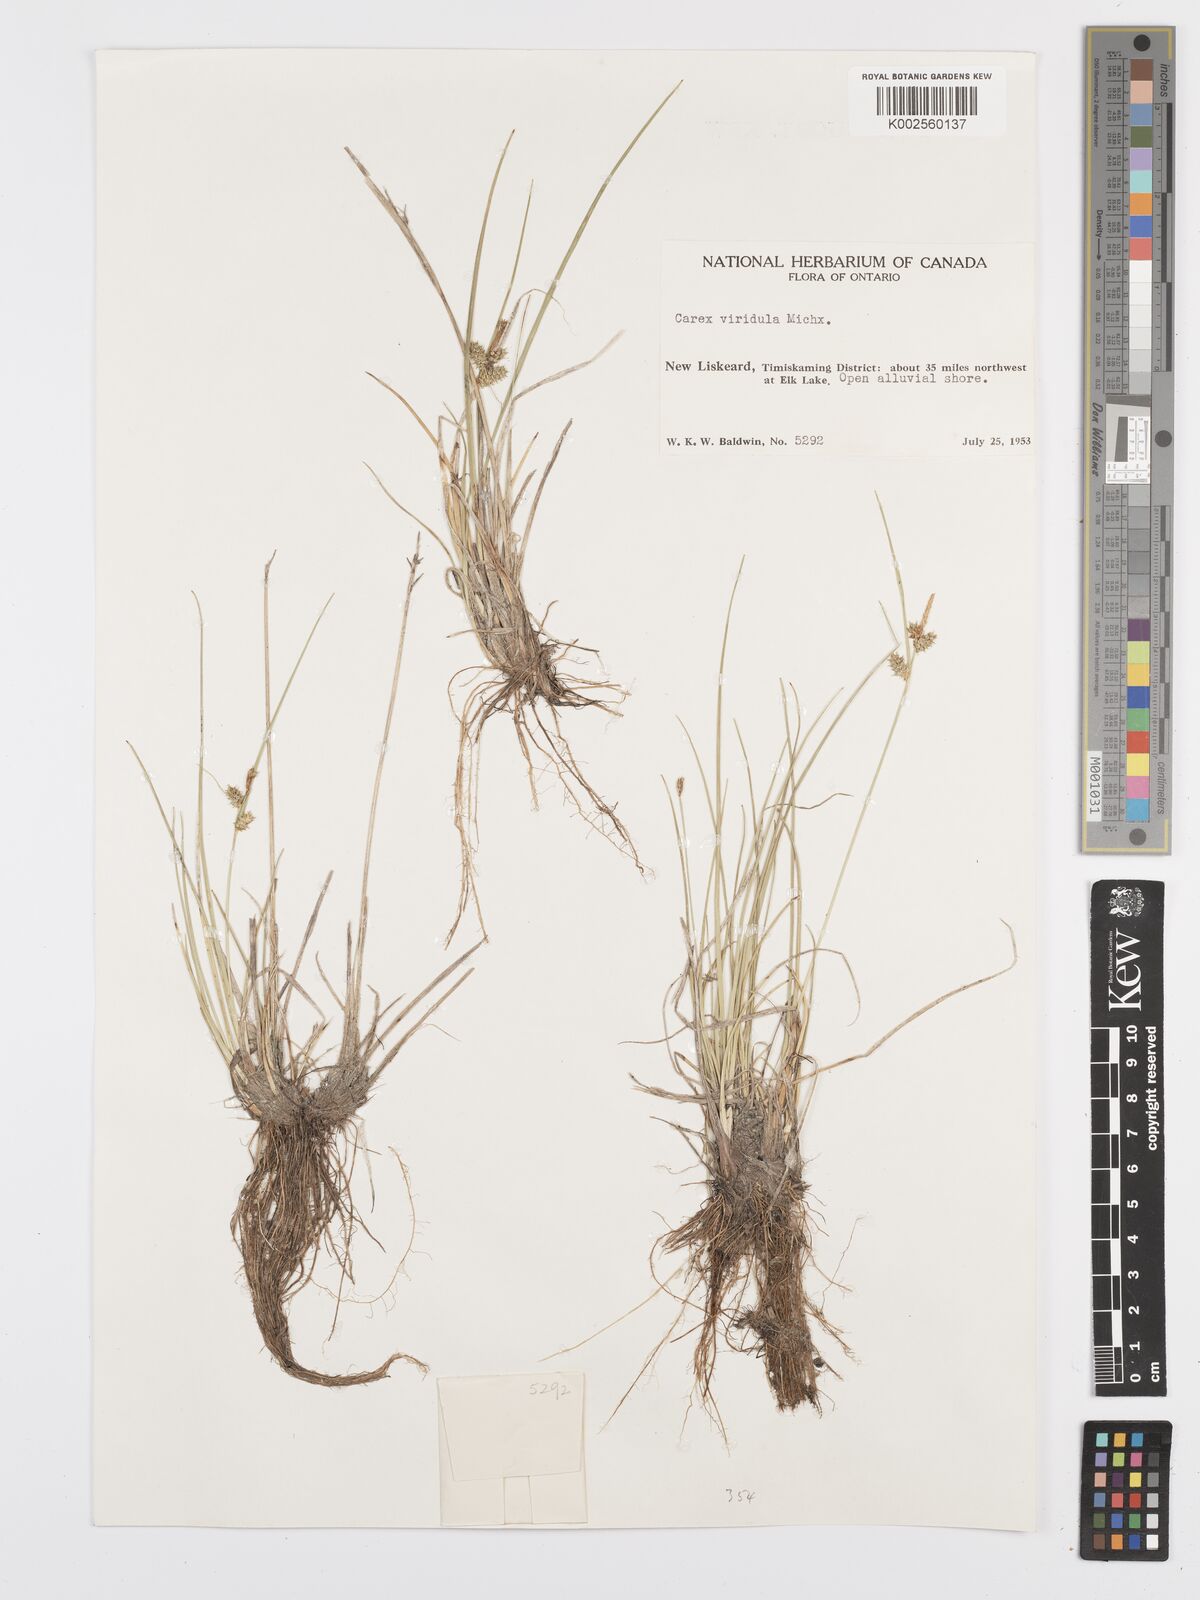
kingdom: Plantae
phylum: Tracheophyta
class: Liliopsida
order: Poales
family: Cyperaceae
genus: Carex
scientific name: Carex oederi
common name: Common & small-fruited yellow-sedge
